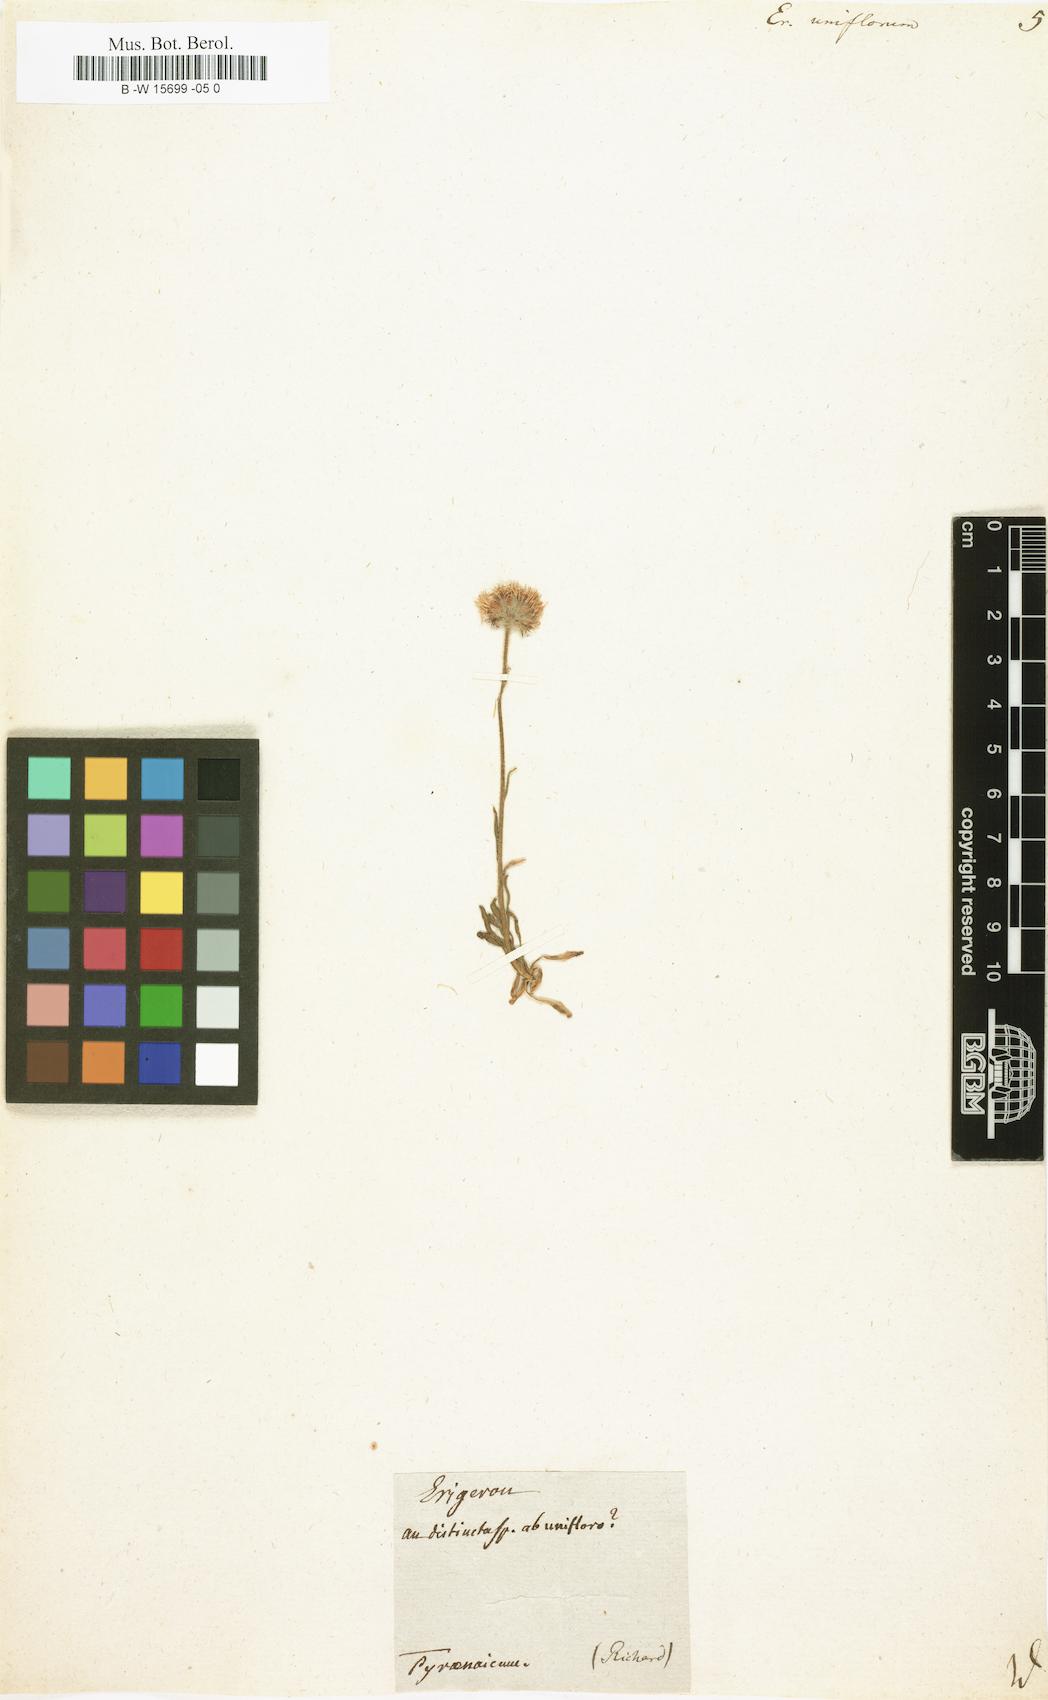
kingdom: Plantae
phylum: Tracheophyta
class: Magnoliopsida
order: Asterales
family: Asteraceae
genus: Erigeron
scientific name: Erigeron uniflorus
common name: Northern daisy
